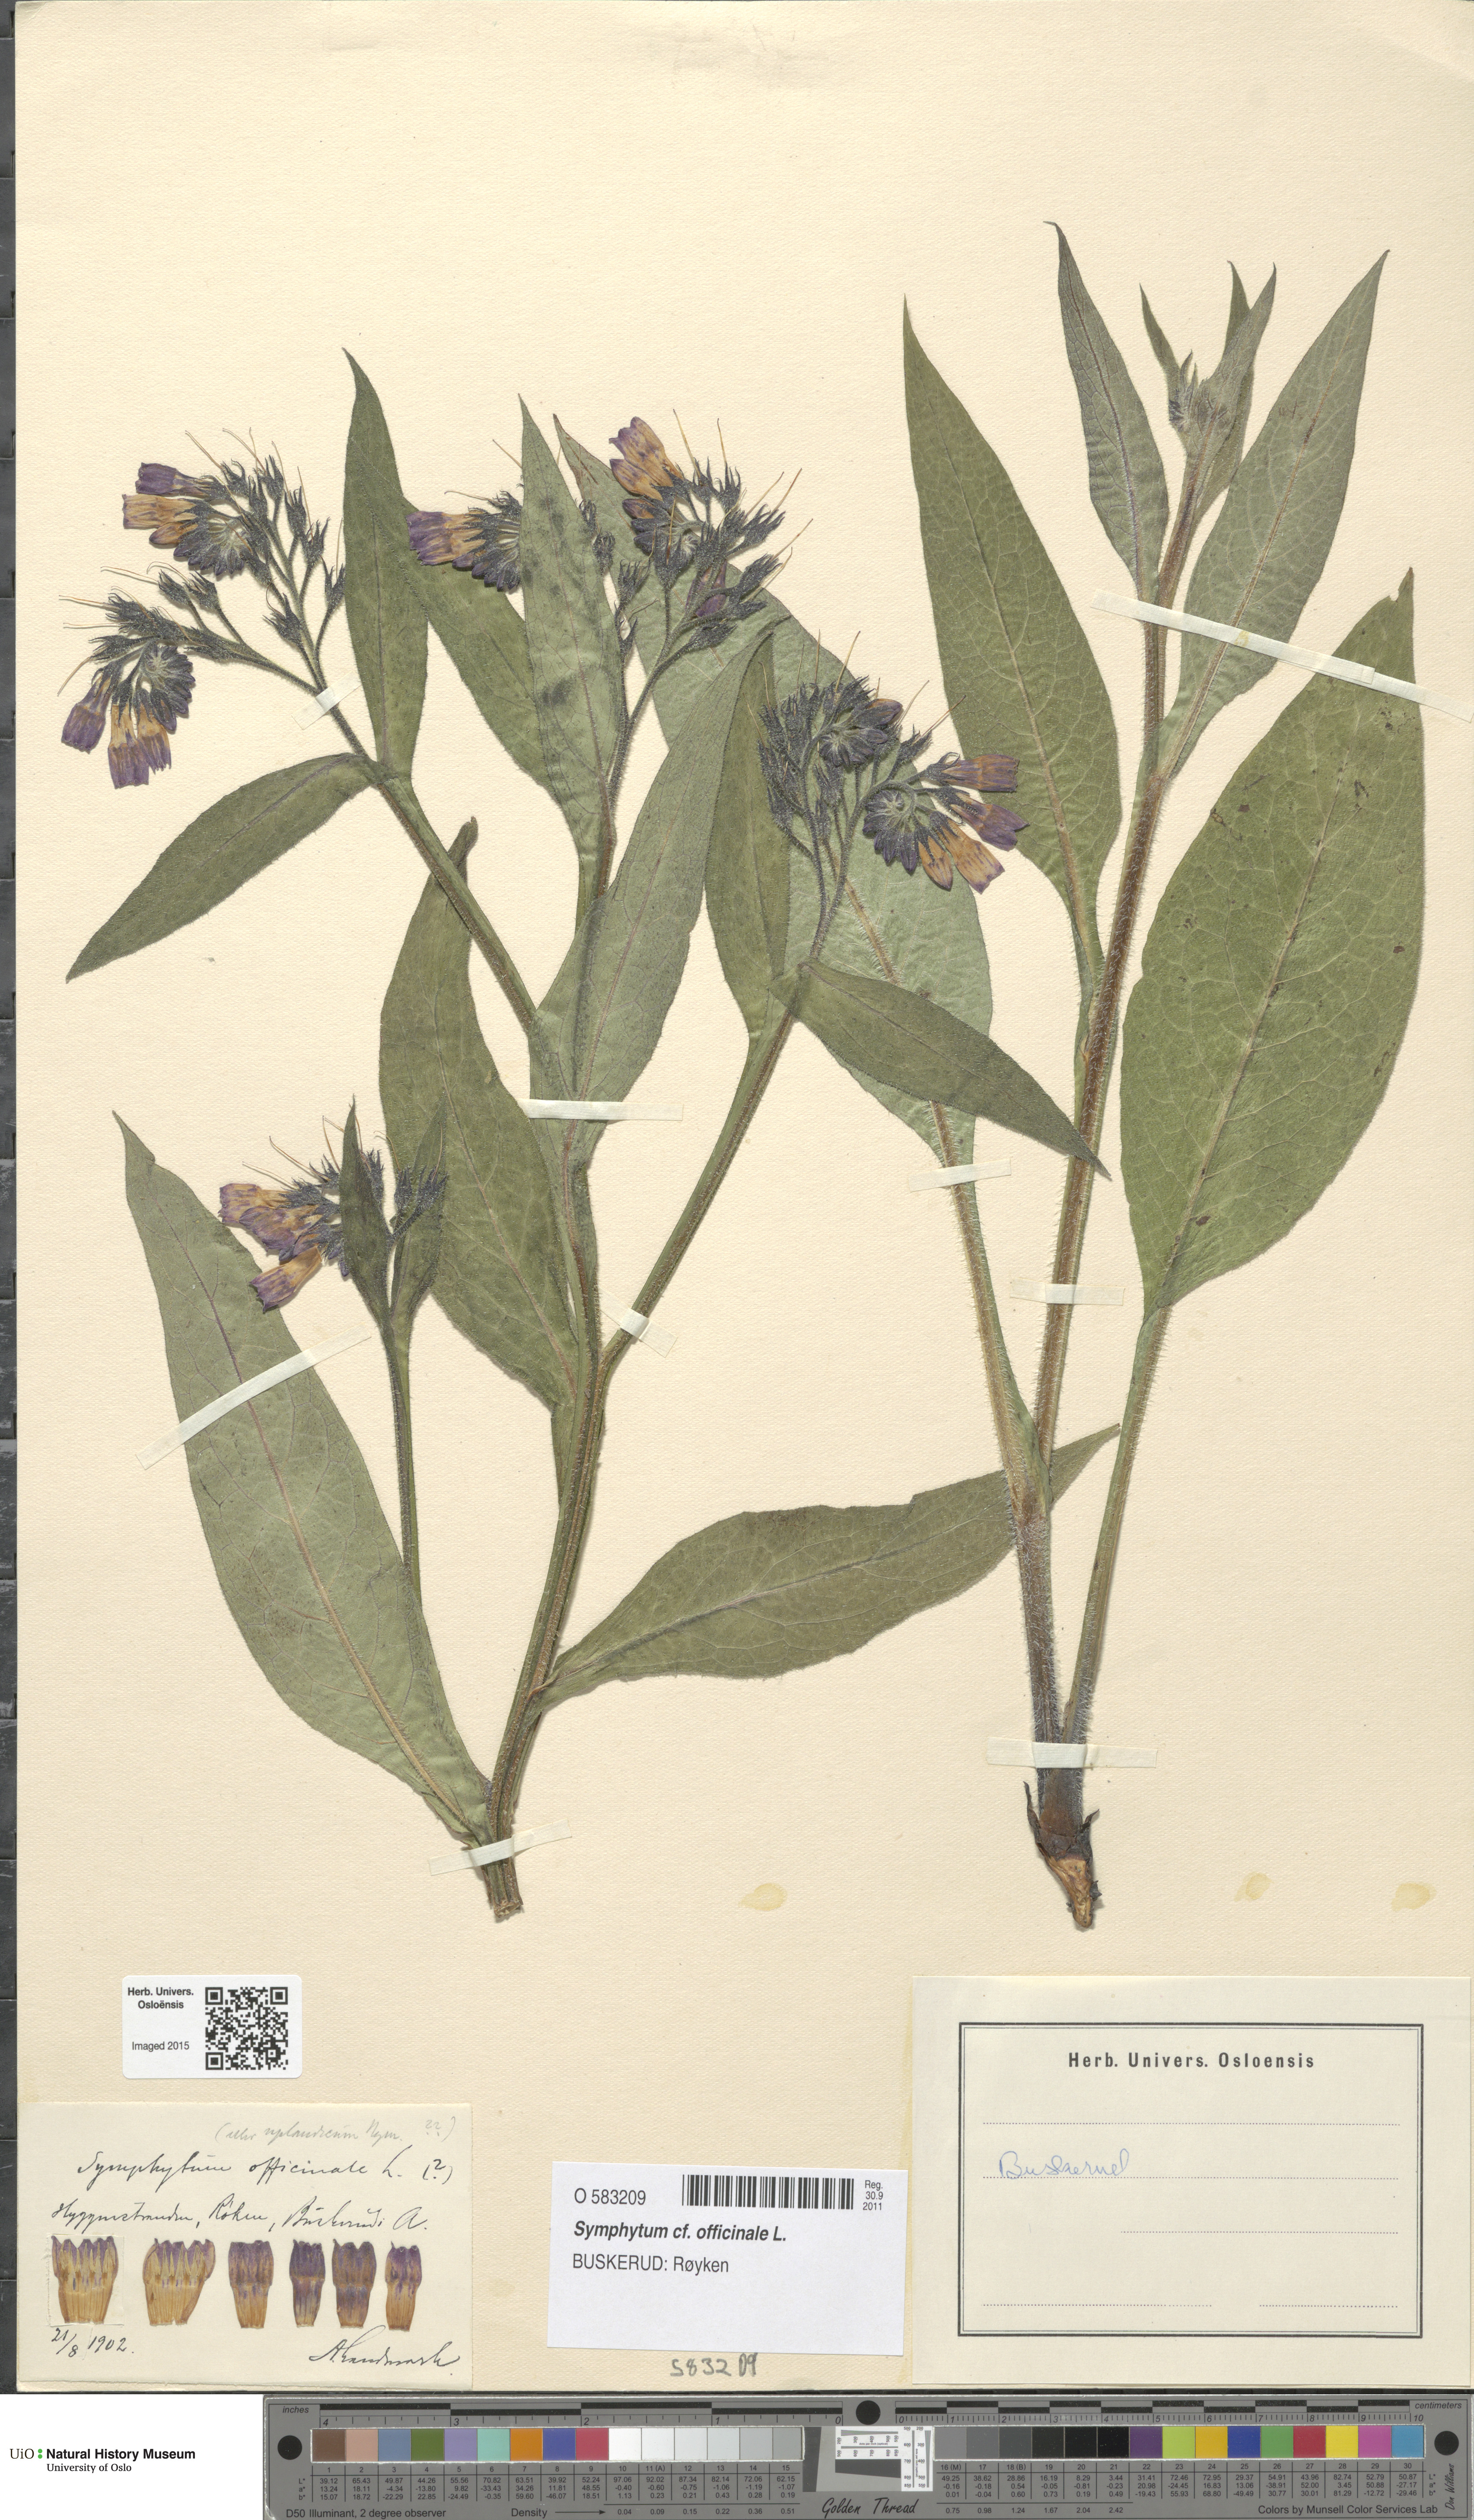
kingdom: Plantae
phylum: Tracheophyta
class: Magnoliopsida
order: Boraginales
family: Boraginaceae
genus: Symphytum
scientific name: Symphytum officinale
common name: Common comfrey
